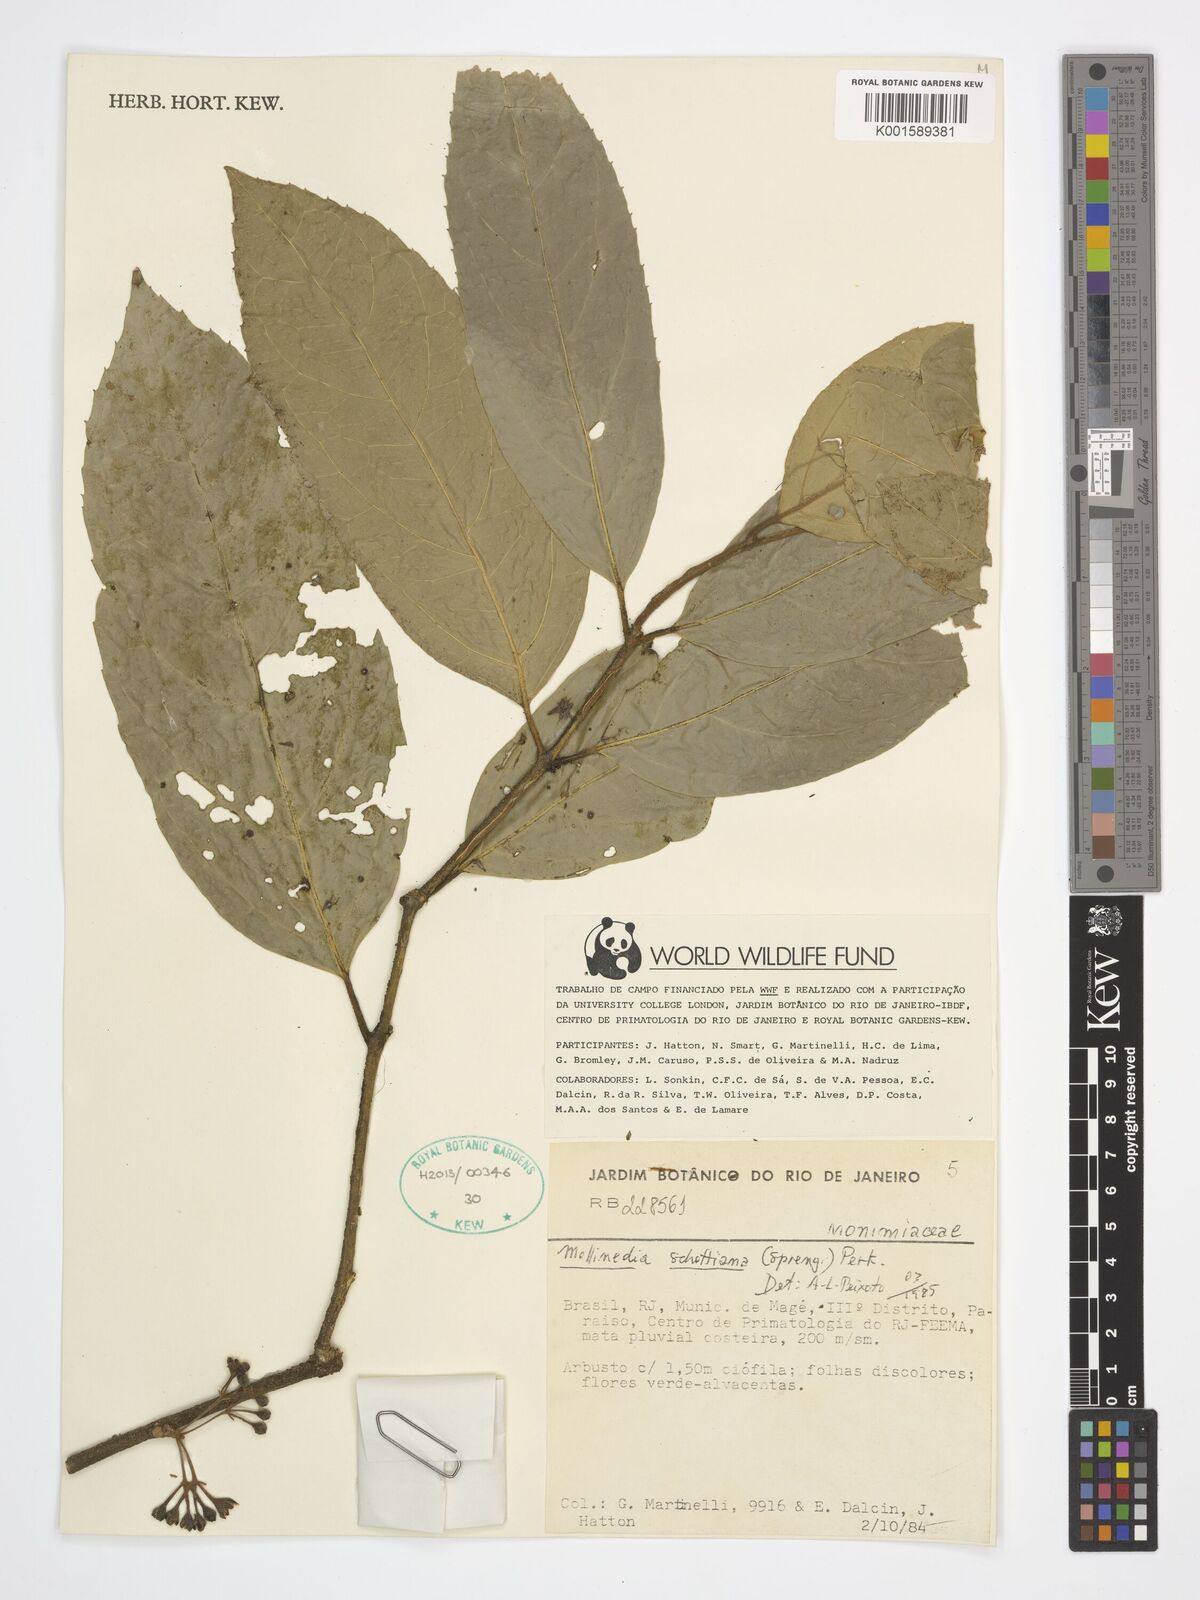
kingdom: Plantae
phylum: Tracheophyta
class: Magnoliopsida
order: Laurales
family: Monimiaceae
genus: Mollinedia
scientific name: Mollinedia umbellata
